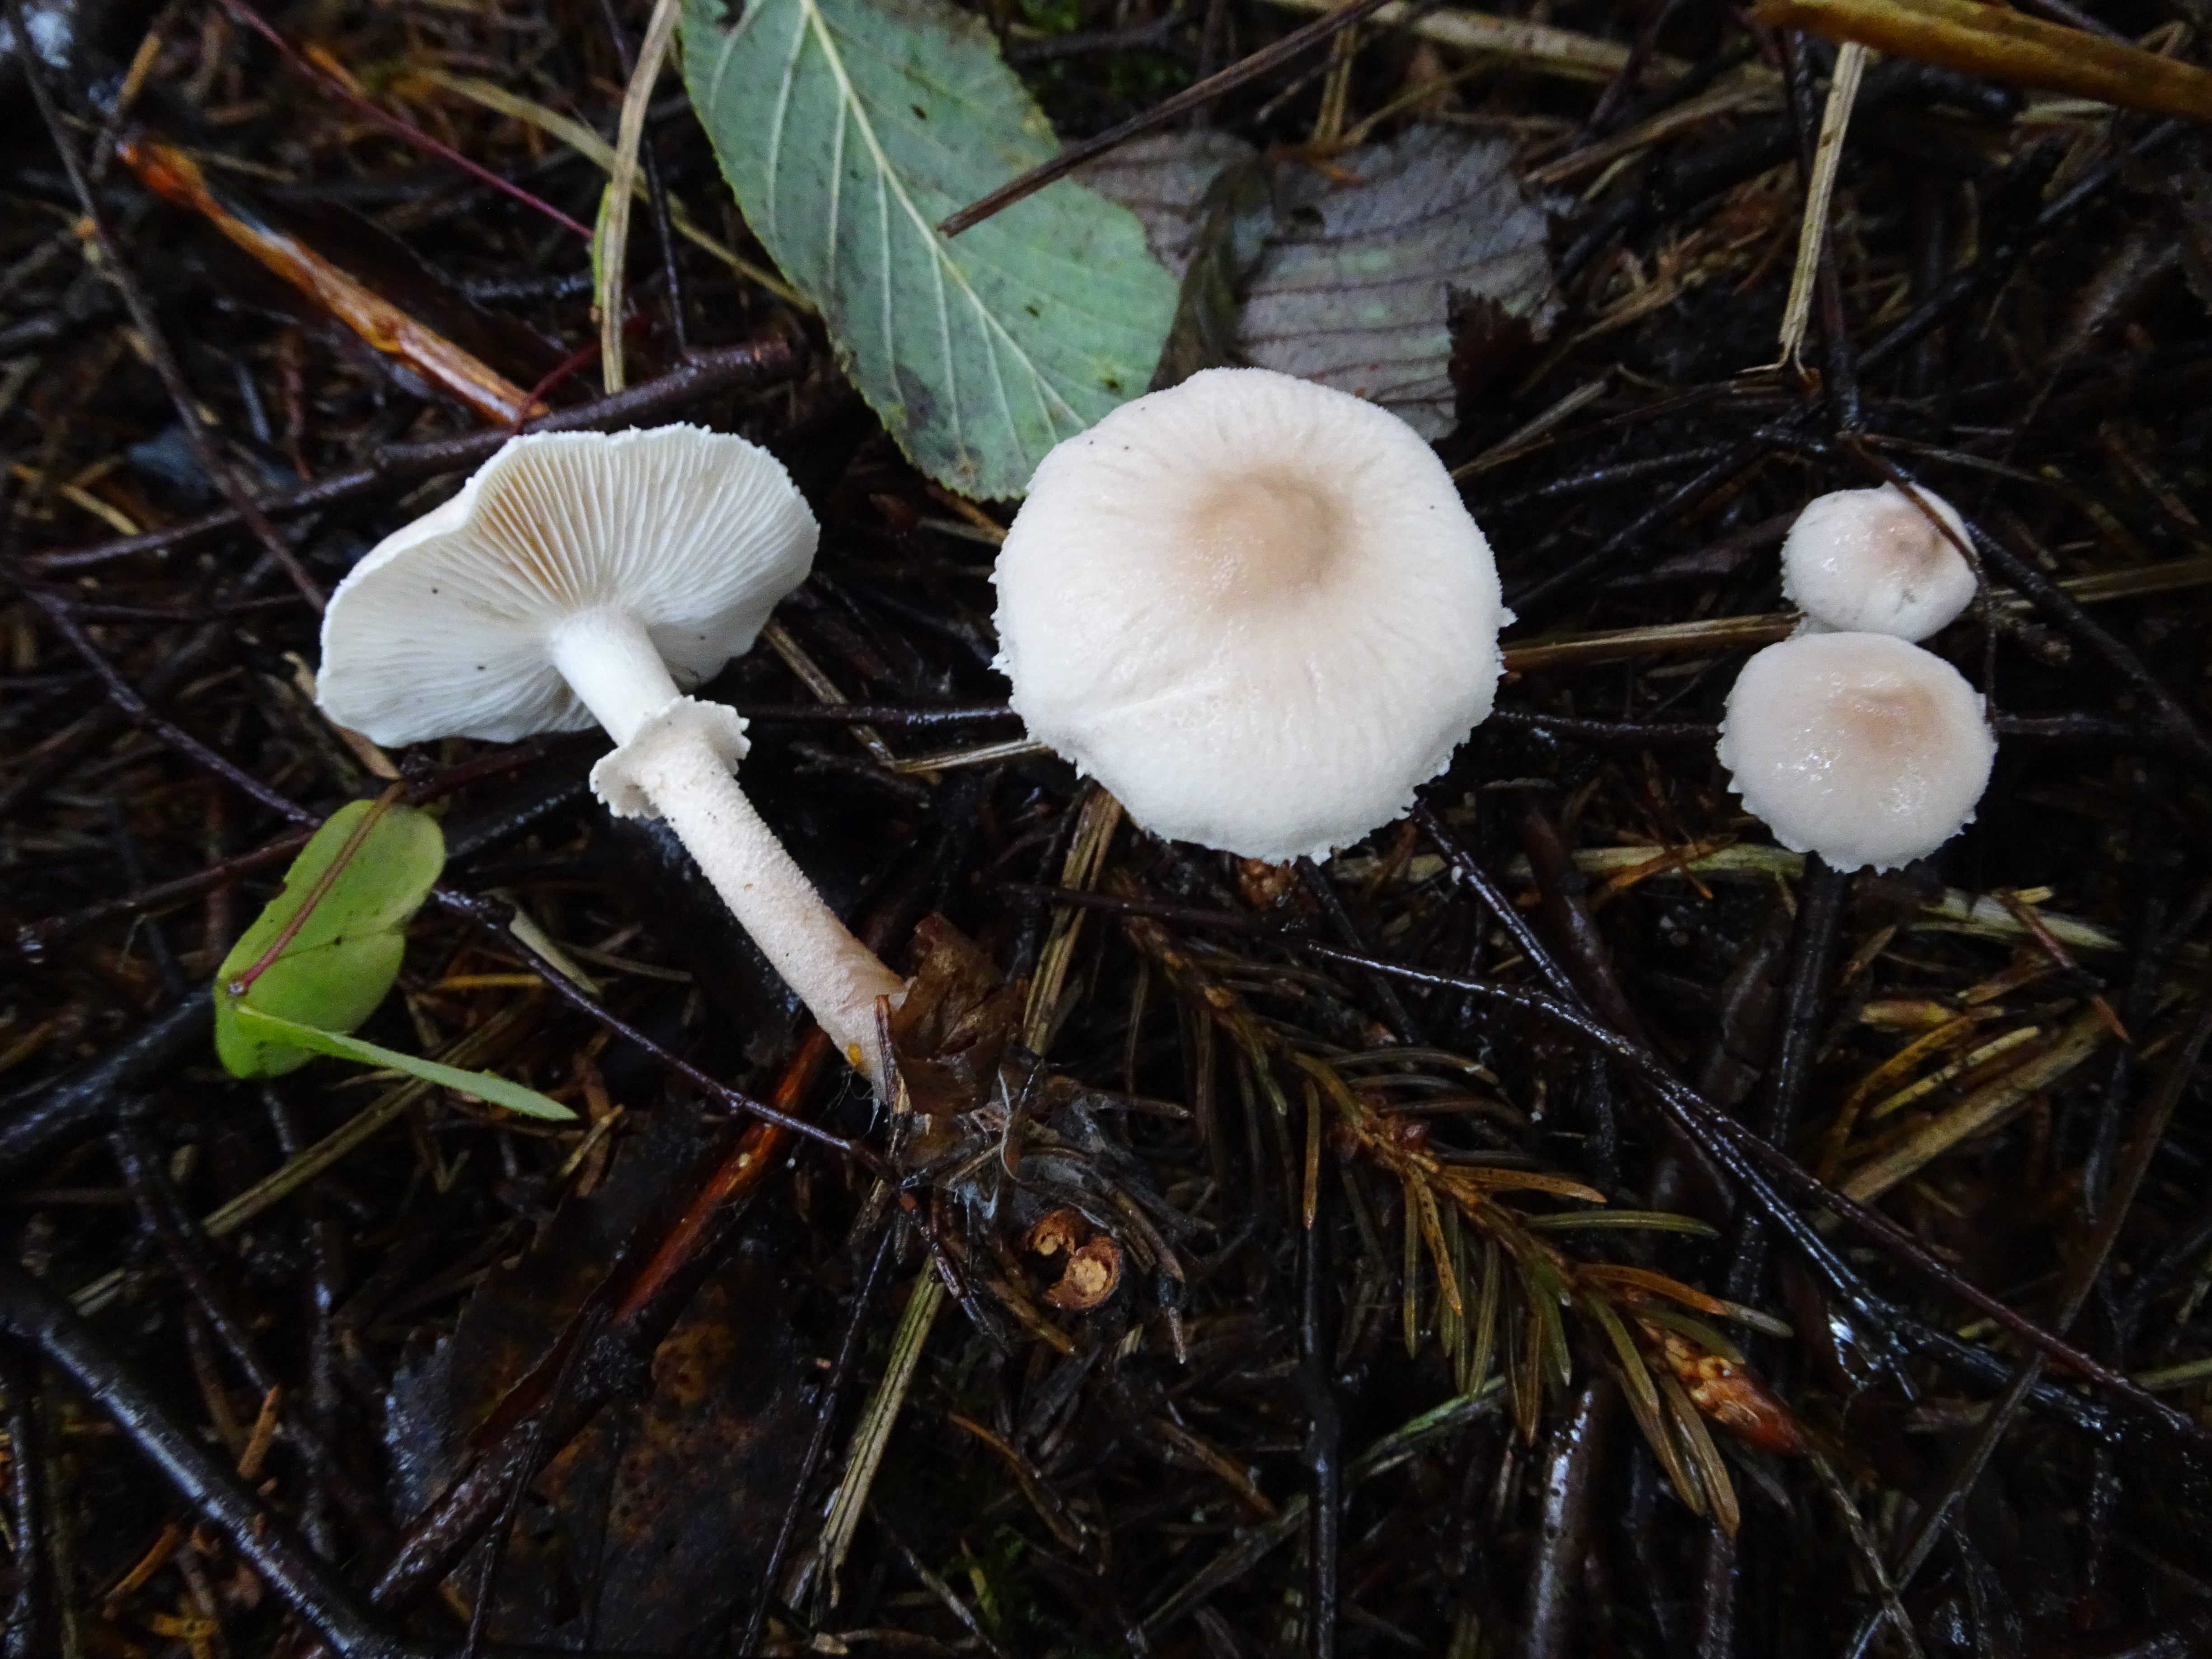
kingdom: Fungi
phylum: Basidiomycota
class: Agaricomycetes
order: Agaricales
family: Tricholomataceae
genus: Cystoderma
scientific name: Cystoderma carcharias
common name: Pearly powdercap
